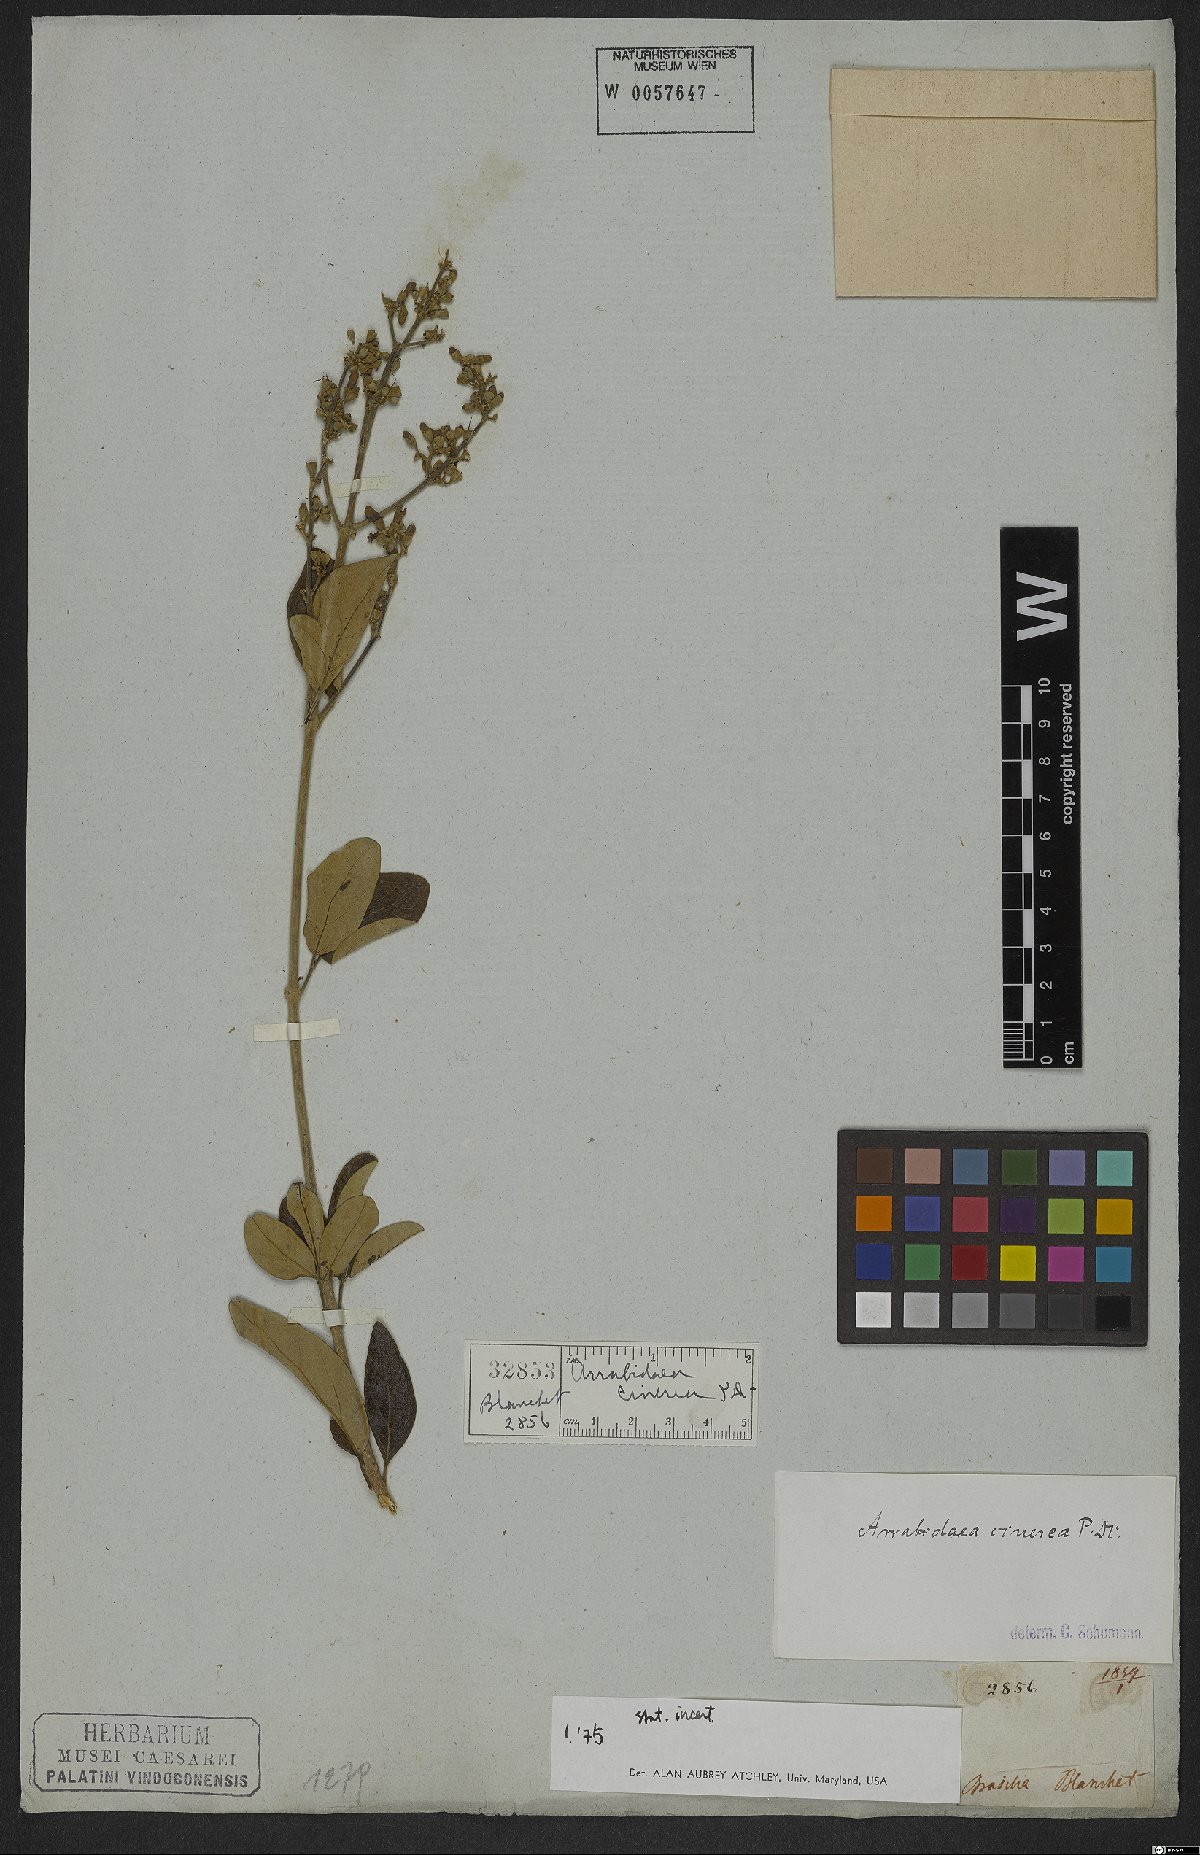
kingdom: Plantae
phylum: Tracheophyta
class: Magnoliopsida
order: Lamiales
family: Bignoniaceae
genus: Fridericia
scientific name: Fridericia cinerea
